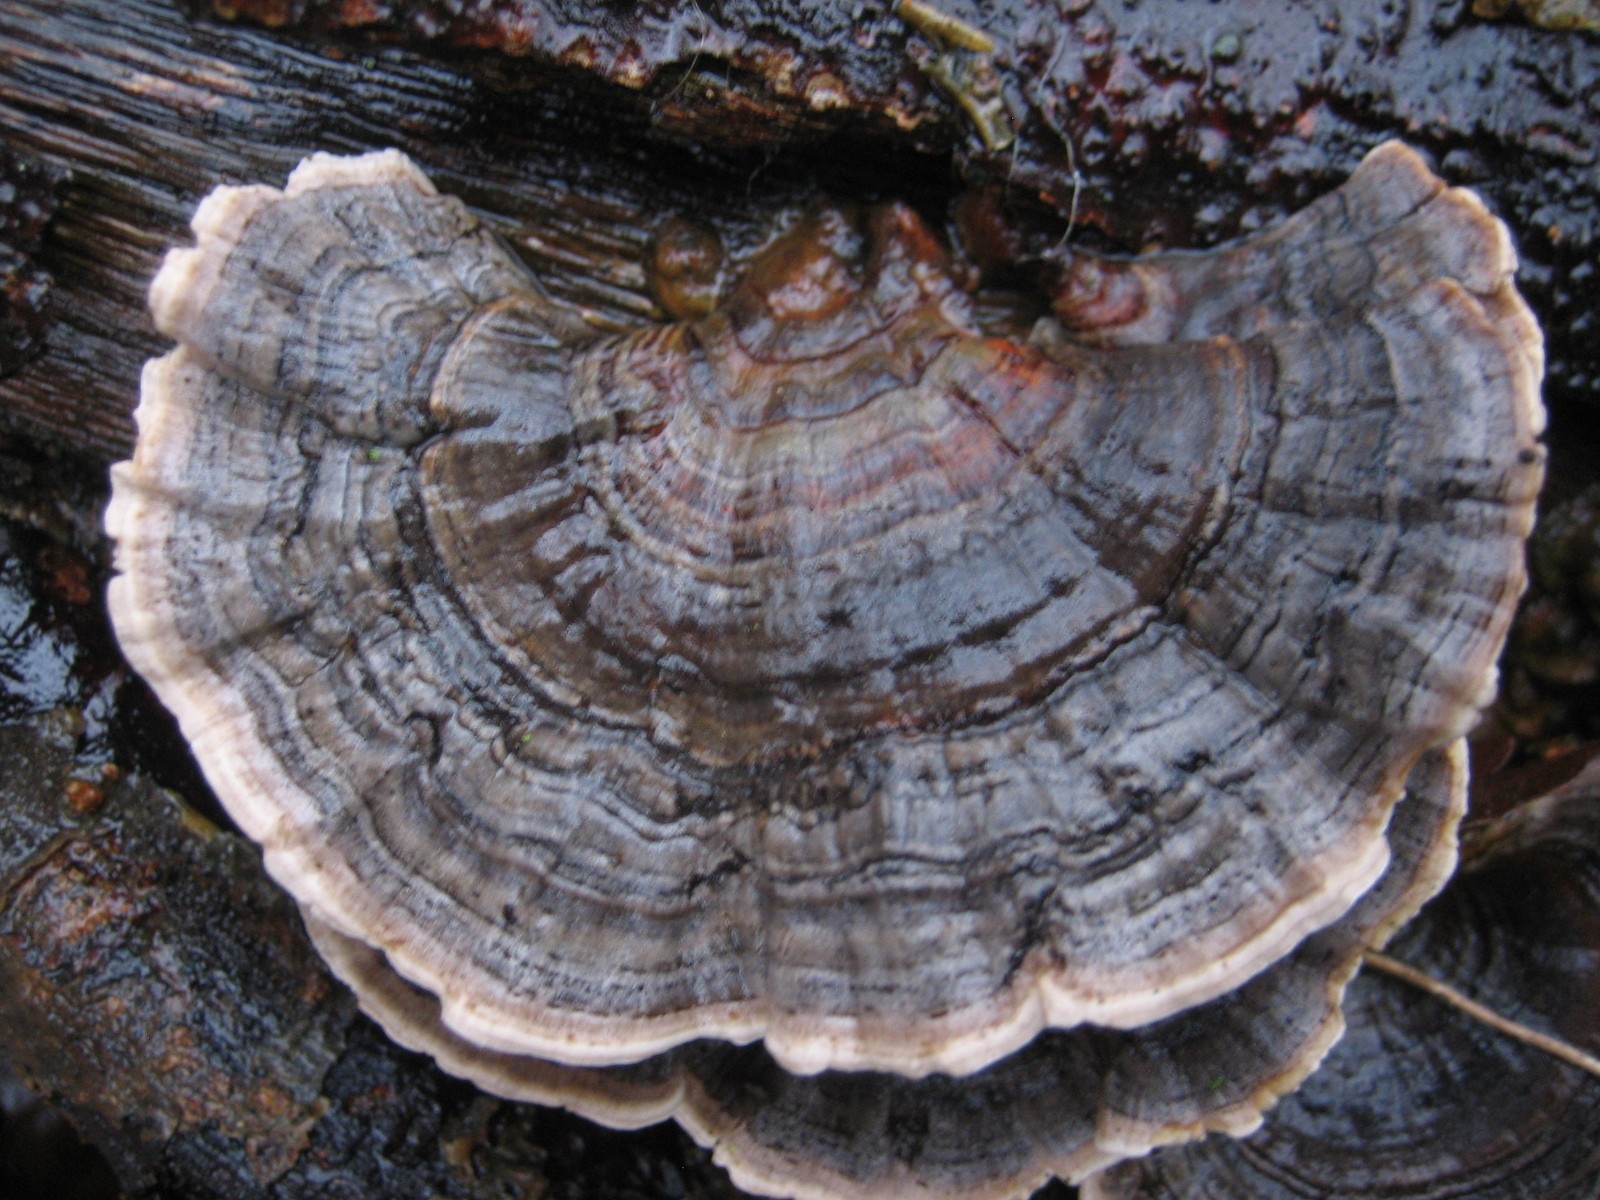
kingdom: Fungi
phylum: Basidiomycota
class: Agaricomycetes
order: Polyporales
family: Polyporaceae
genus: Trametes
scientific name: Trametes versicolor
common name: broget læderporesvamp
